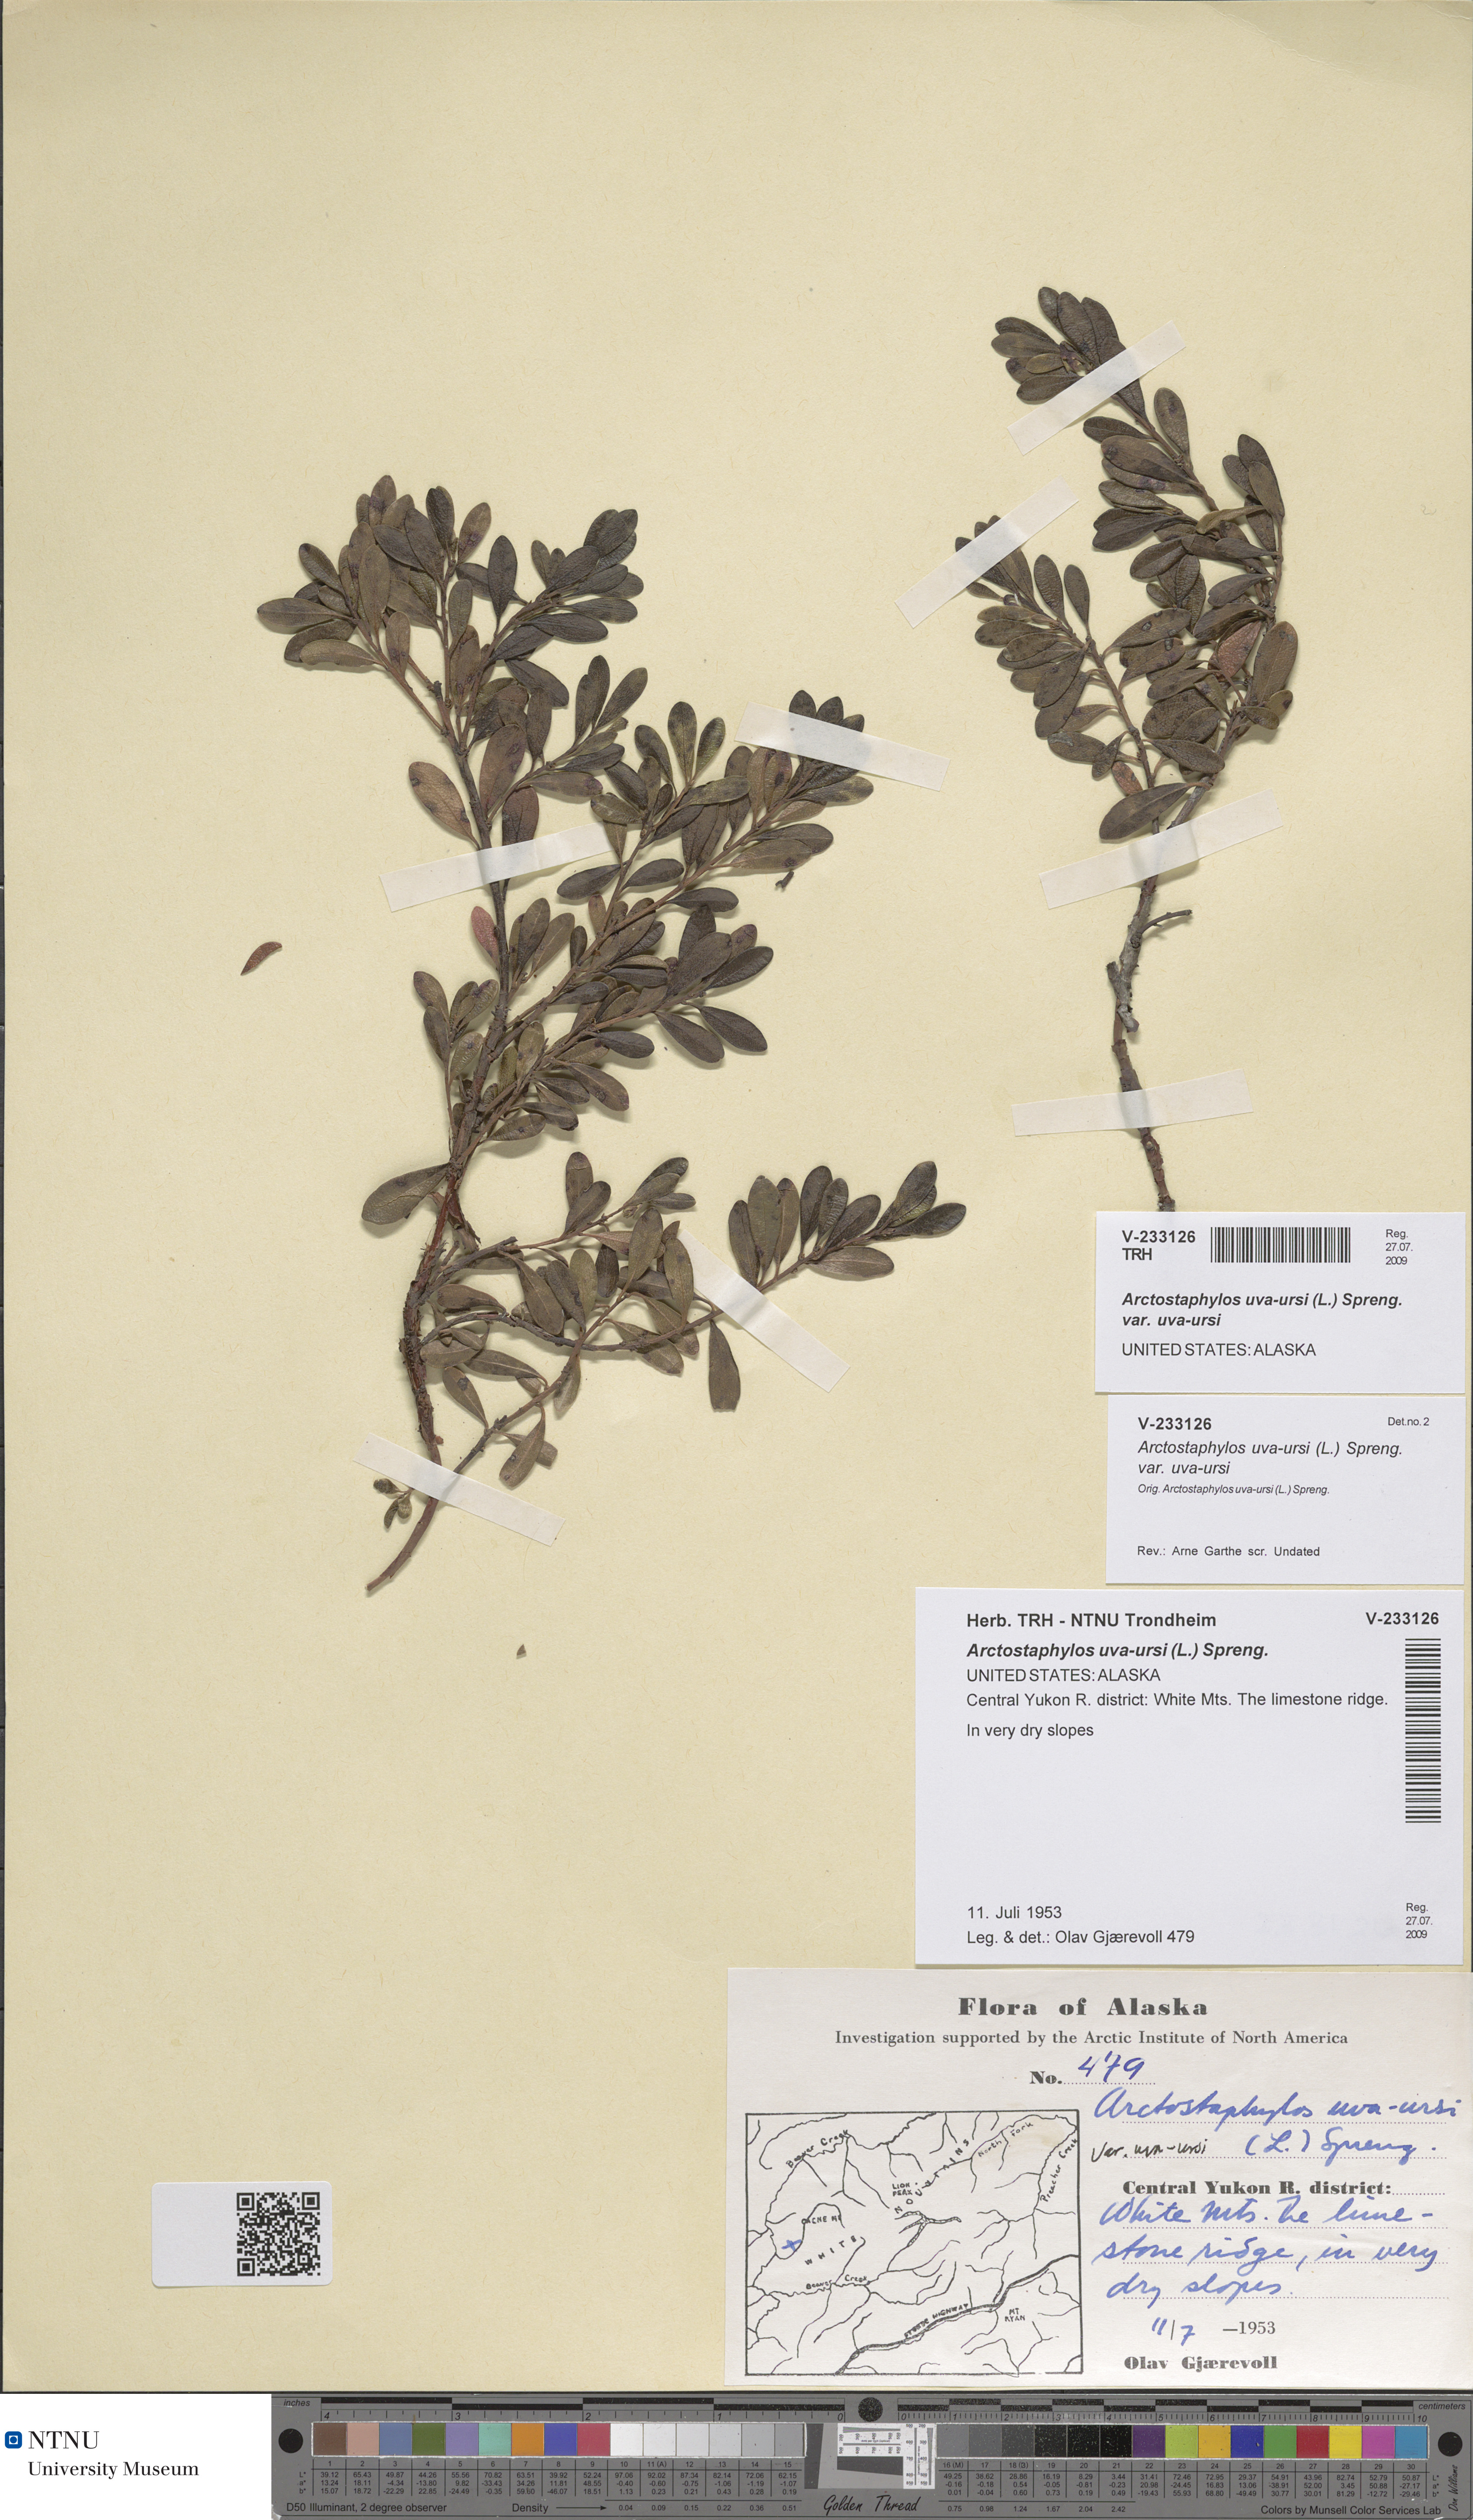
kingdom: Plantae
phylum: Tracheophyta
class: Magnoliopsida
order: Ericales
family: Ericaceae
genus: Arctostaphylos
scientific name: Arctostaphylos uva-ursi
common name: Bearberry
